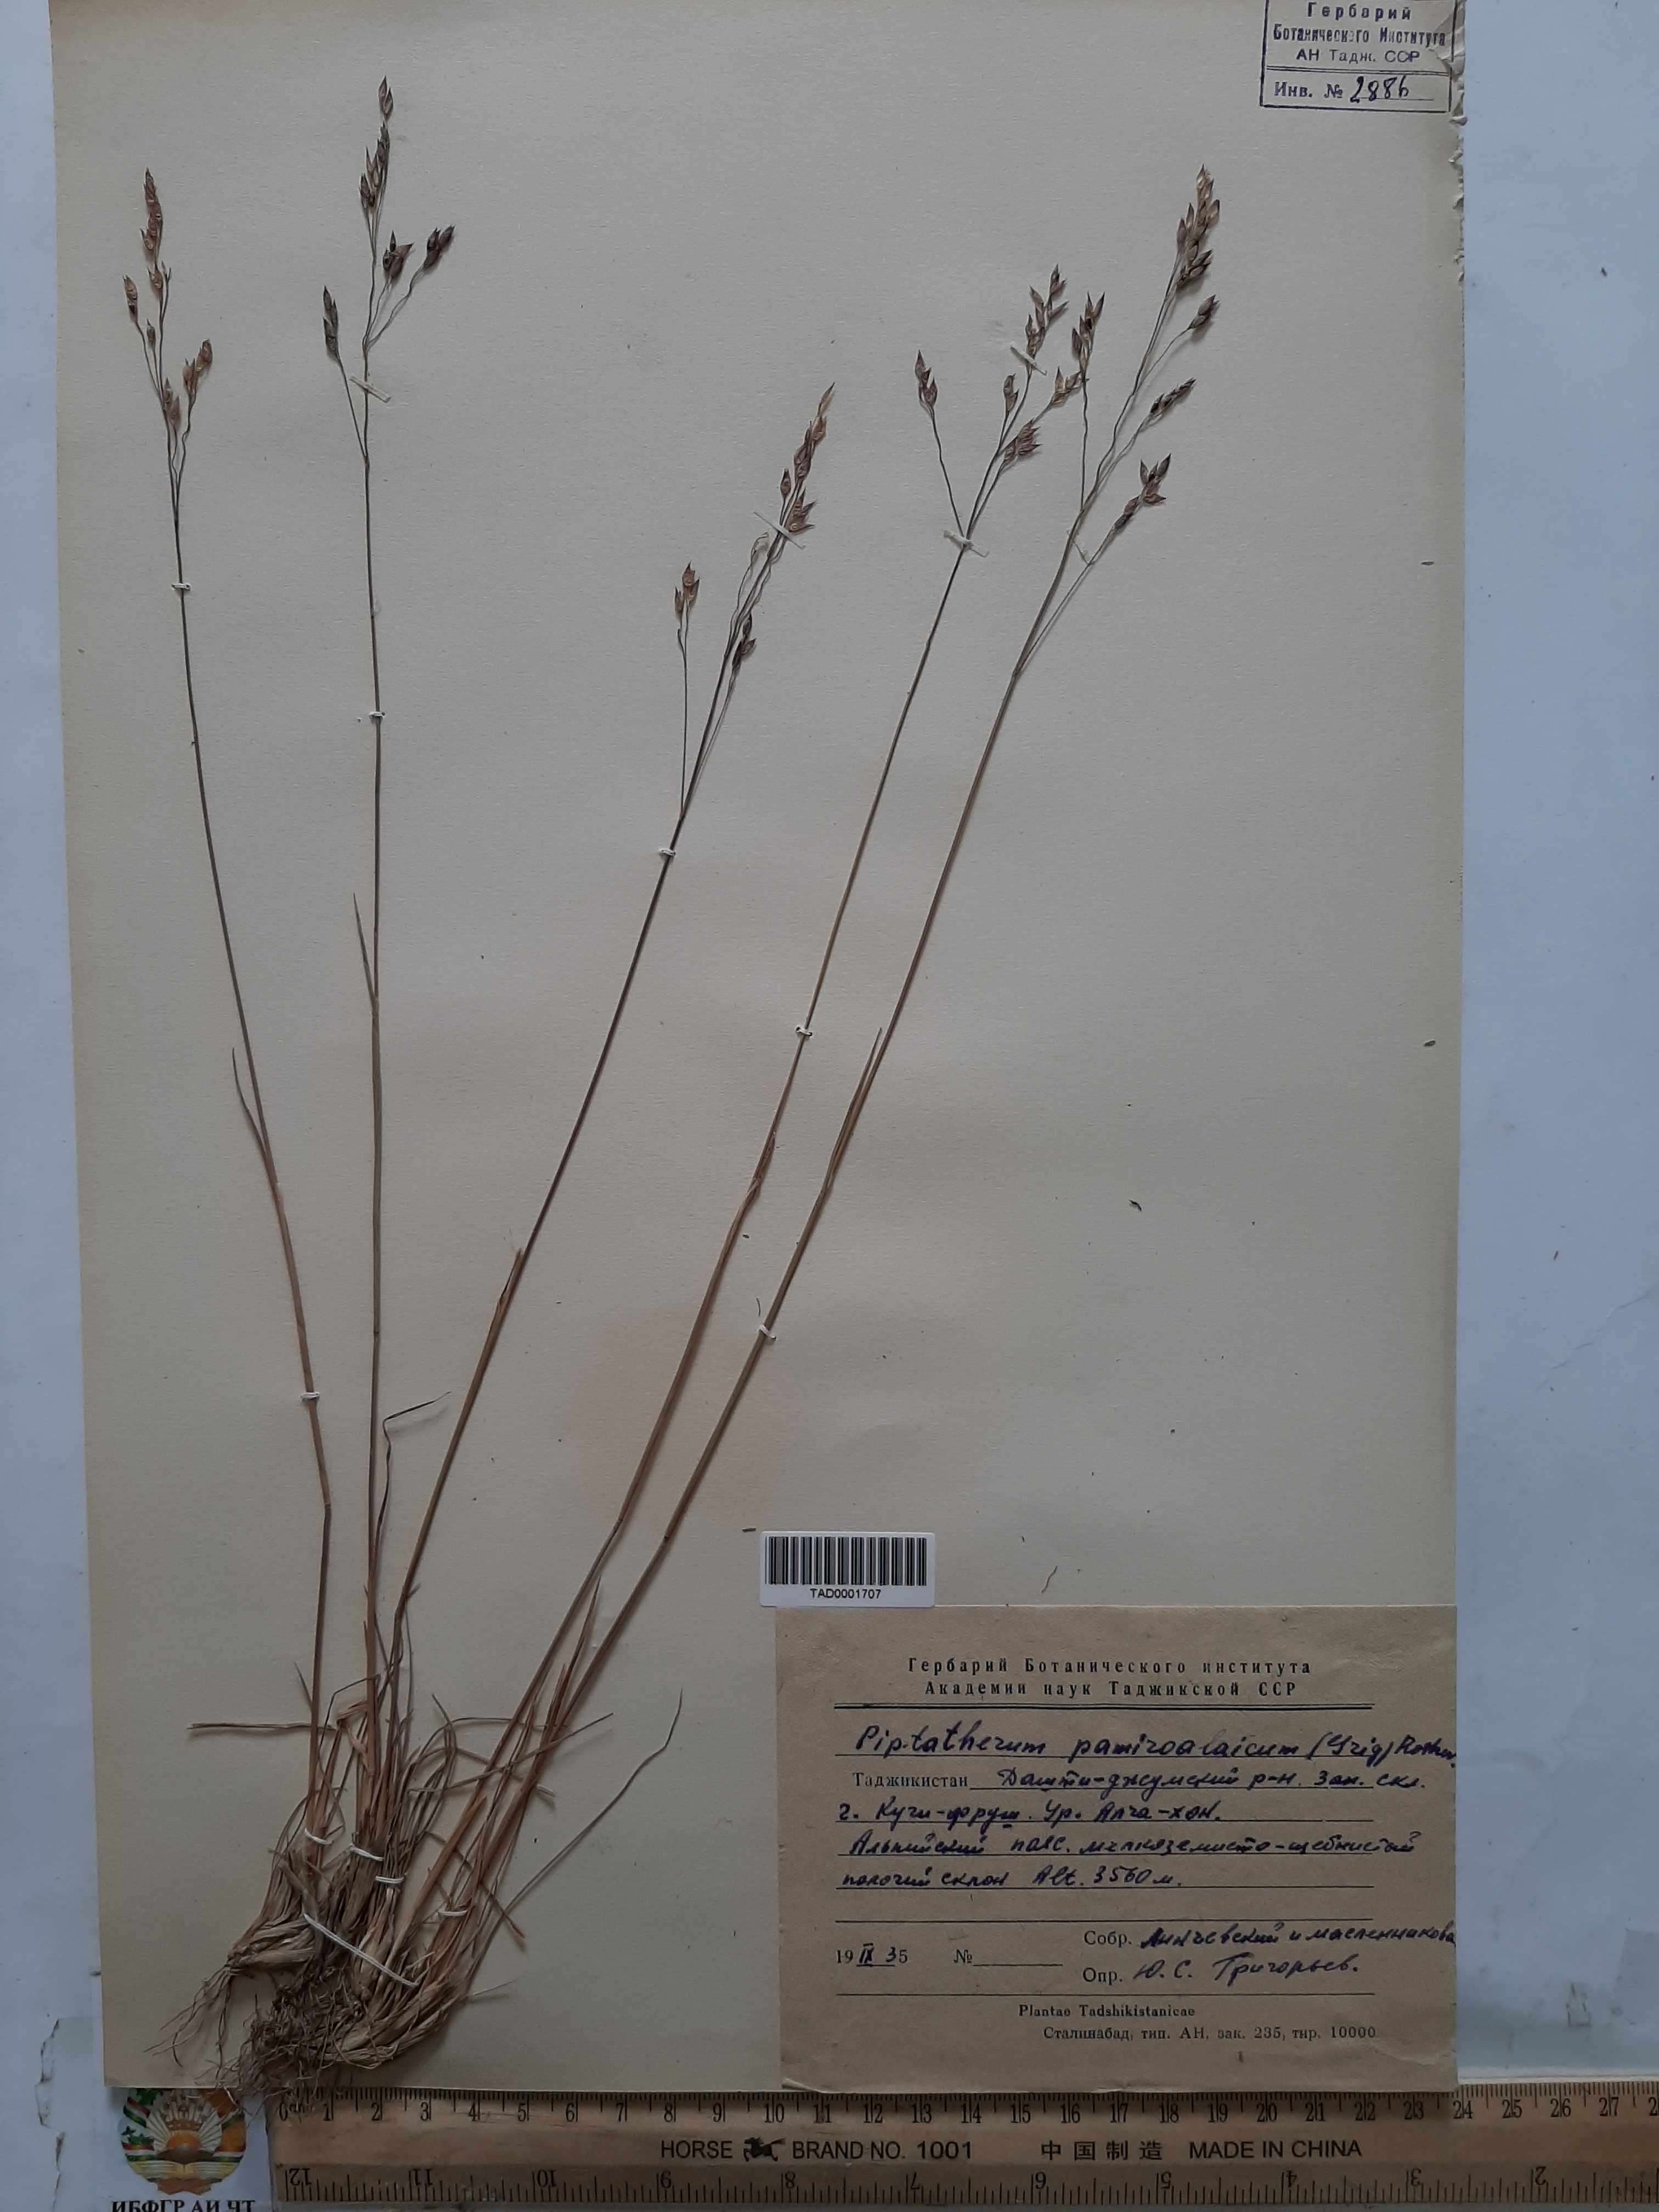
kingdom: Plantae
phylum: Tracheophyta
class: Liliopsida
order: Poales
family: Poaceae
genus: Piptatherum
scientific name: Piptatherum pamiralaicum
